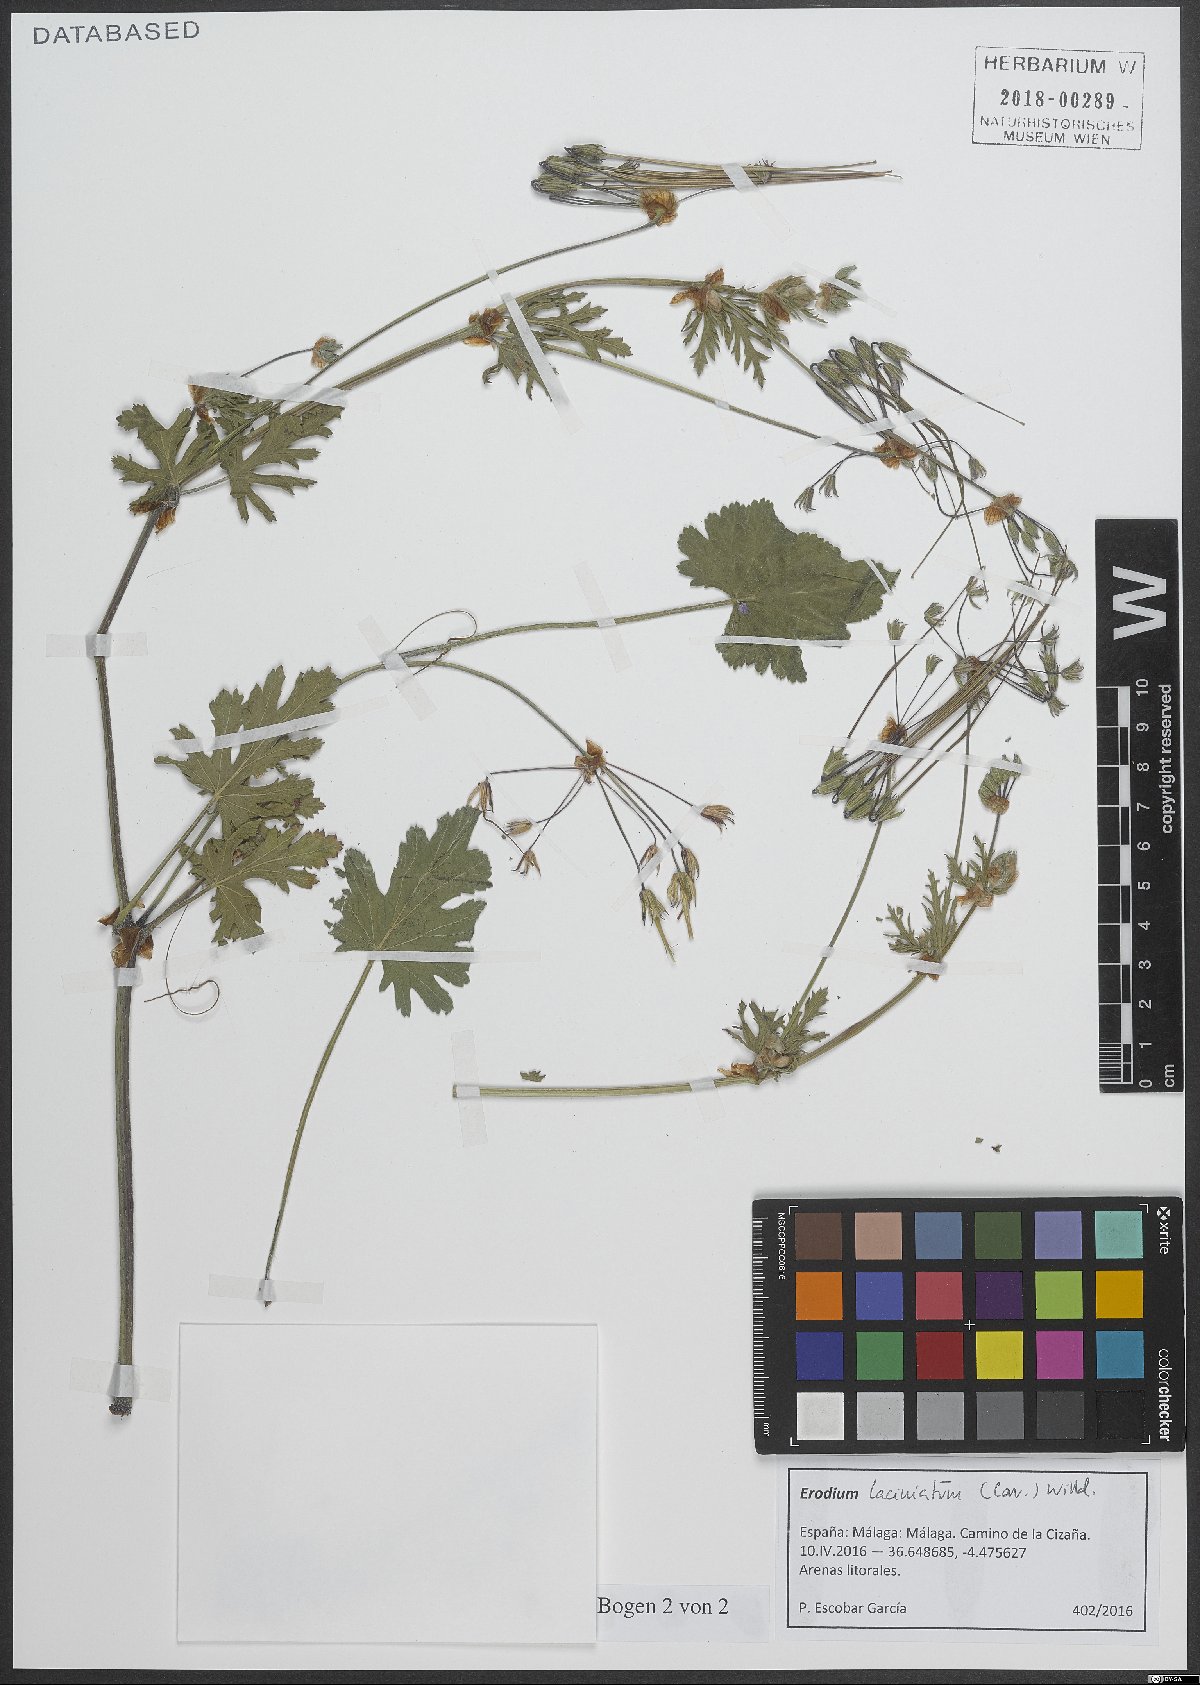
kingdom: Plantae
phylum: Tracheophyta
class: Magnoliopsida
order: Geraniales
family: Geraniaceae
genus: Erodium
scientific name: Erodium laciniatum
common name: Cutleaf stork's bill
